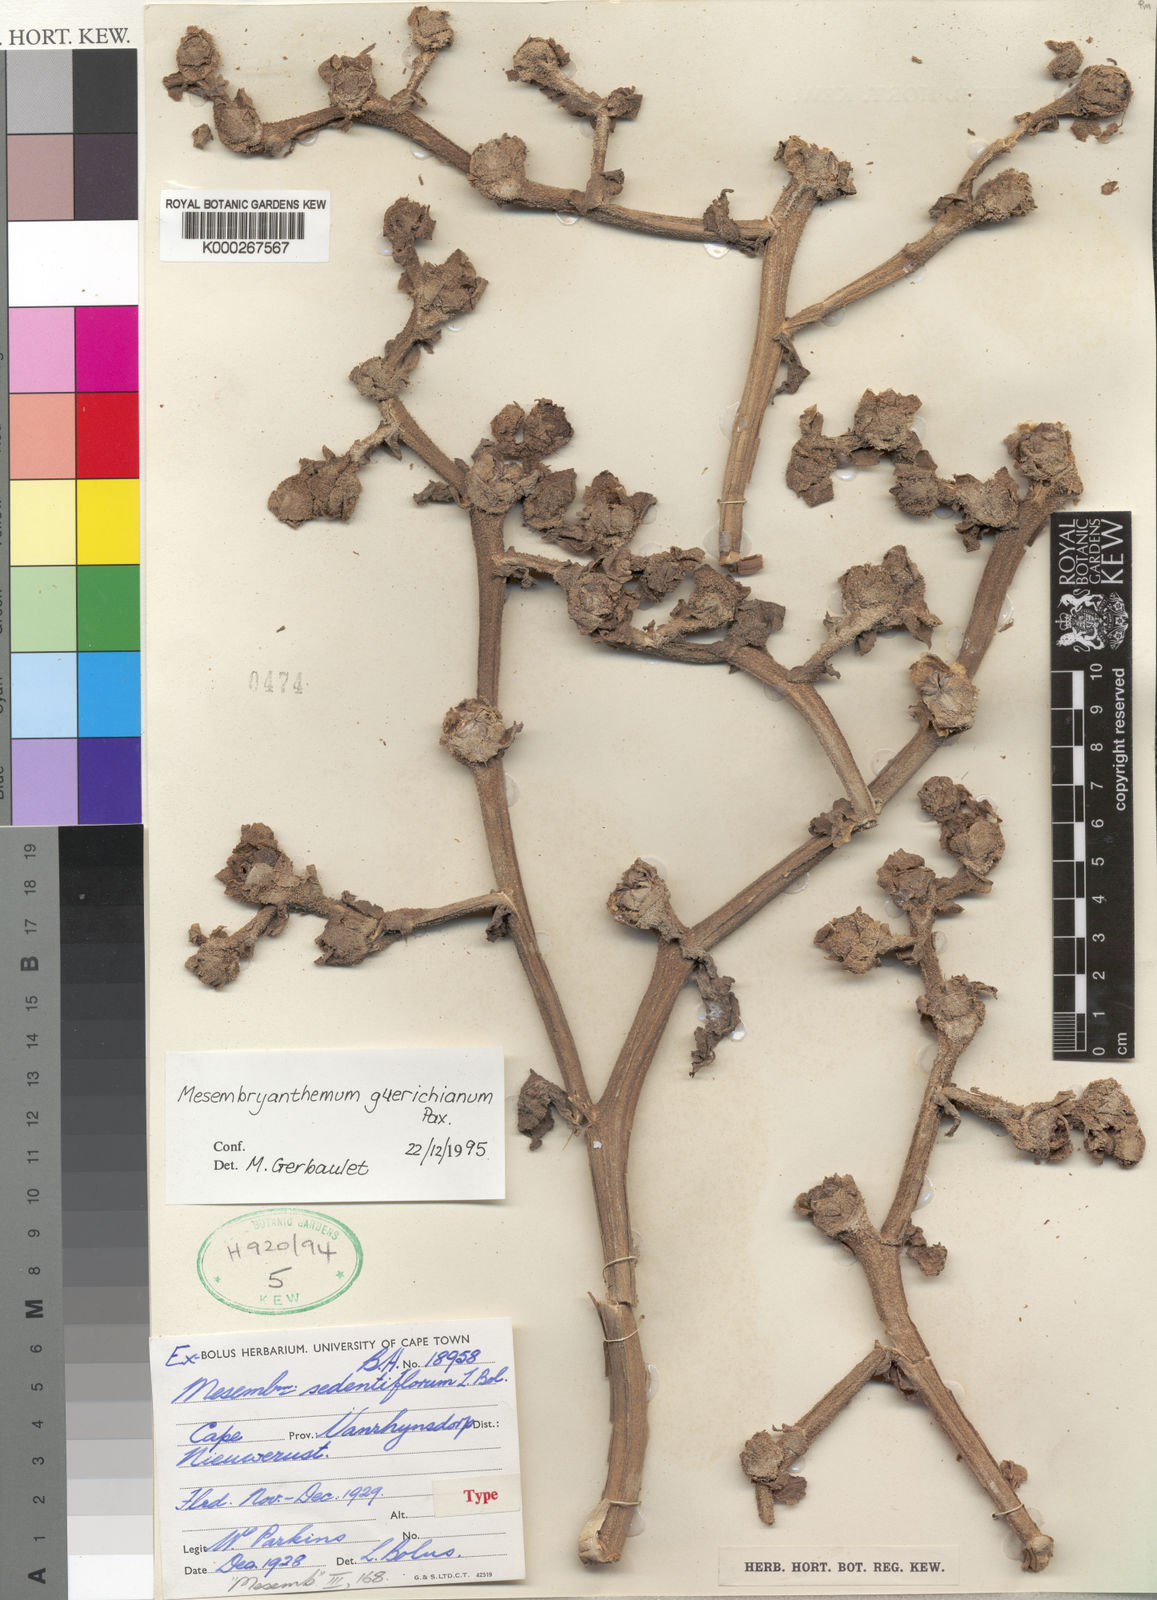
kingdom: Plantae
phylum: Tracheophyta
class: Magnoliopsida
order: Caryophyllales
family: Aizoaceae
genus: Mesembryanthemum
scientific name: Mesembryanthemum guerichianum
